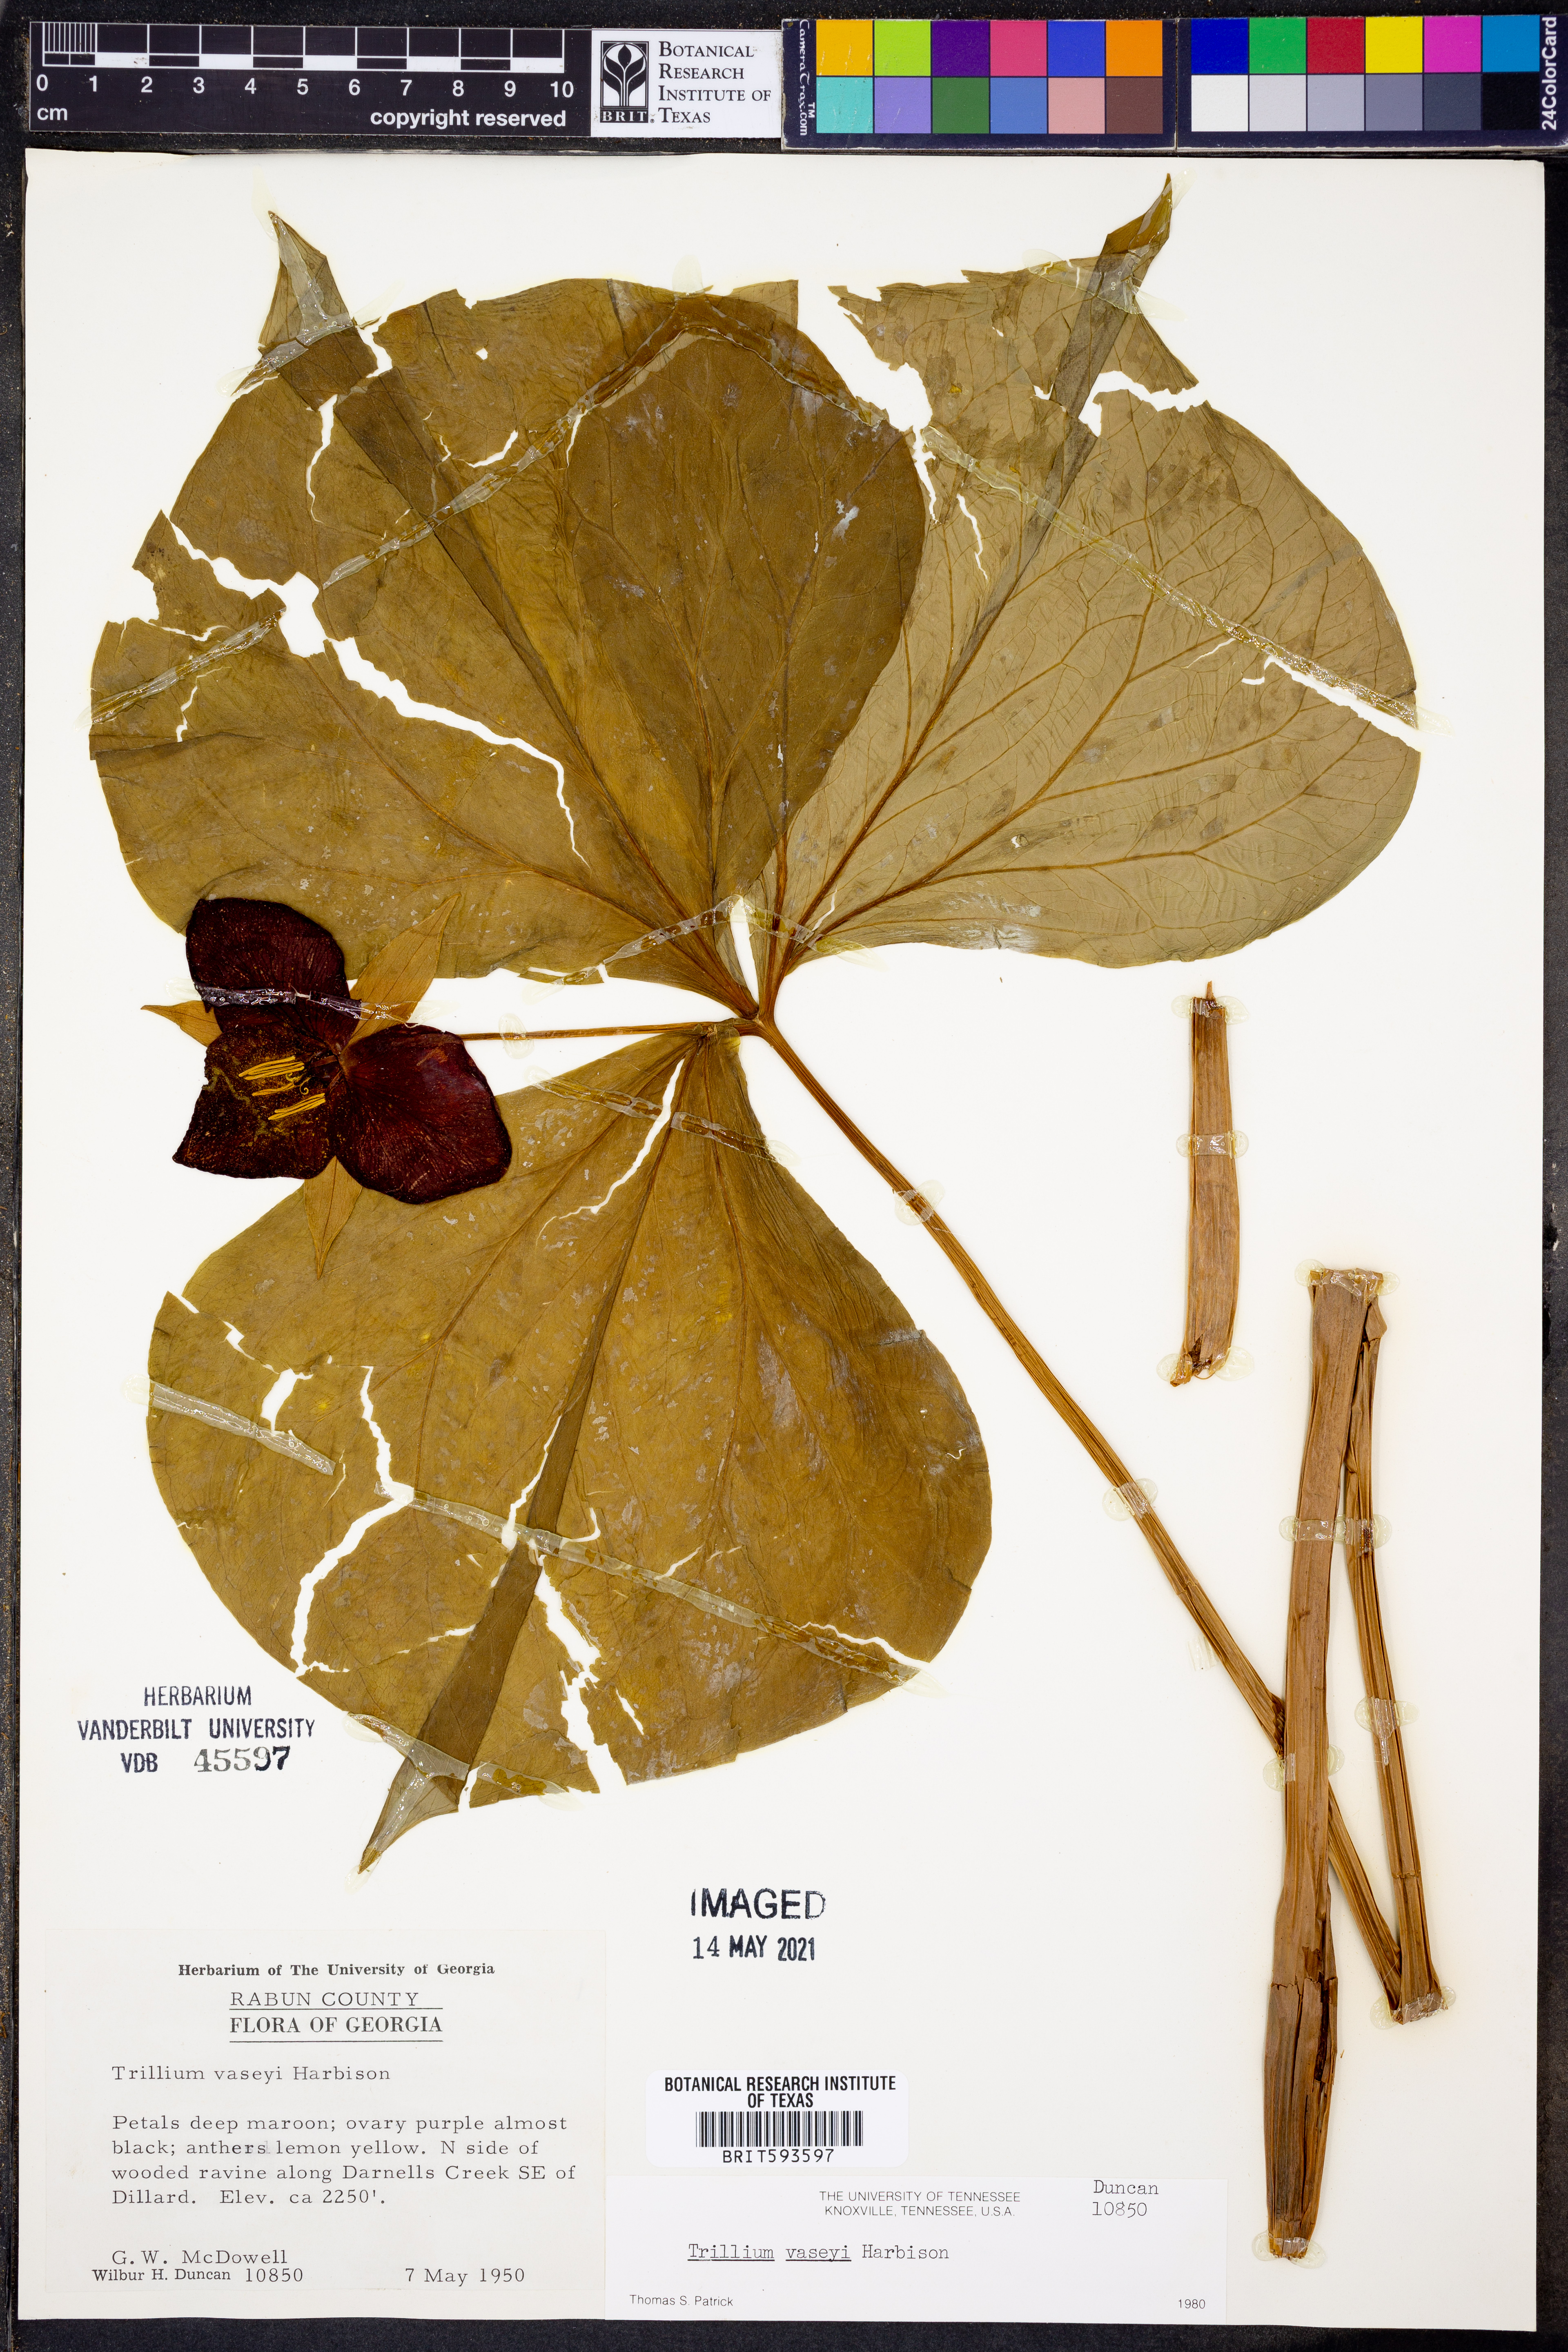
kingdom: Plantae
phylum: Tracheophyta
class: Liliopsida
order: Liliales
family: Melanthiaceae
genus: Trillium
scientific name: Trillium vaseyi
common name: Sweet trillium
